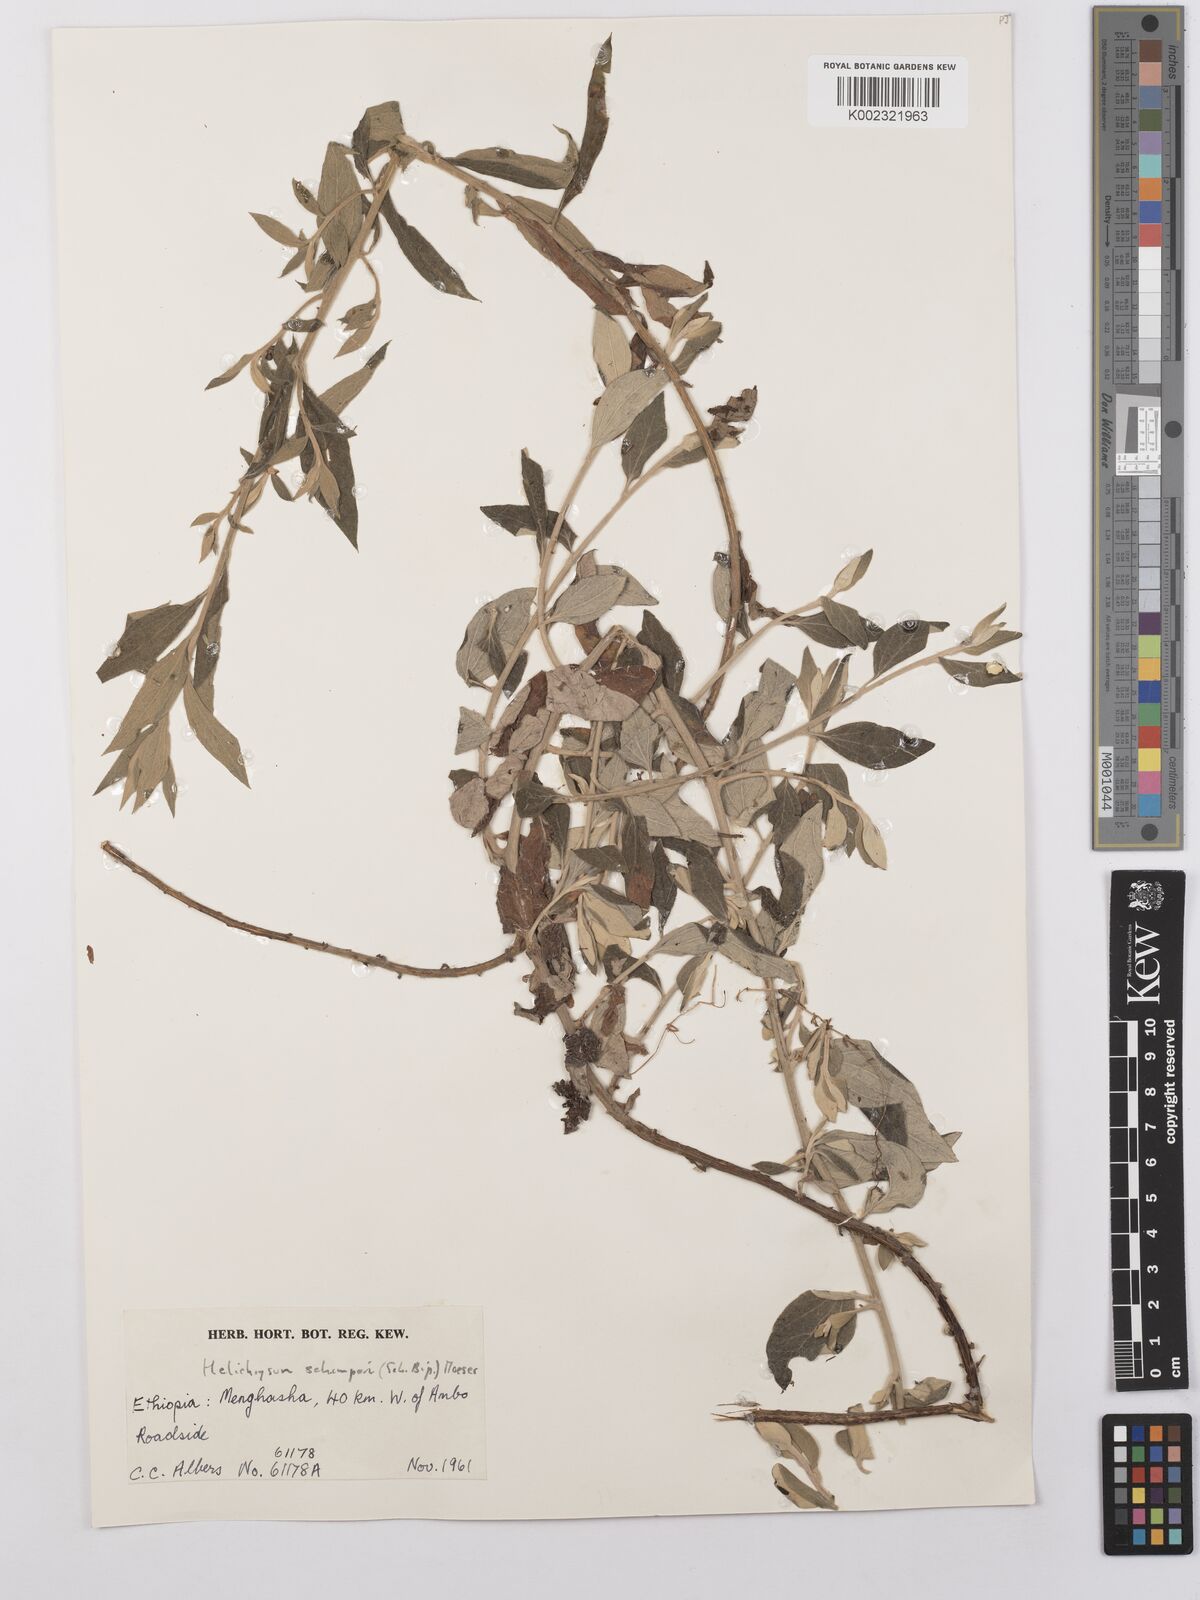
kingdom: Plantae
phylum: Tracheophyta
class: Magnoliopsida
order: Asterales
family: Asteraceae
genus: Helichrysum
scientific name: Helichrysum schimperi
